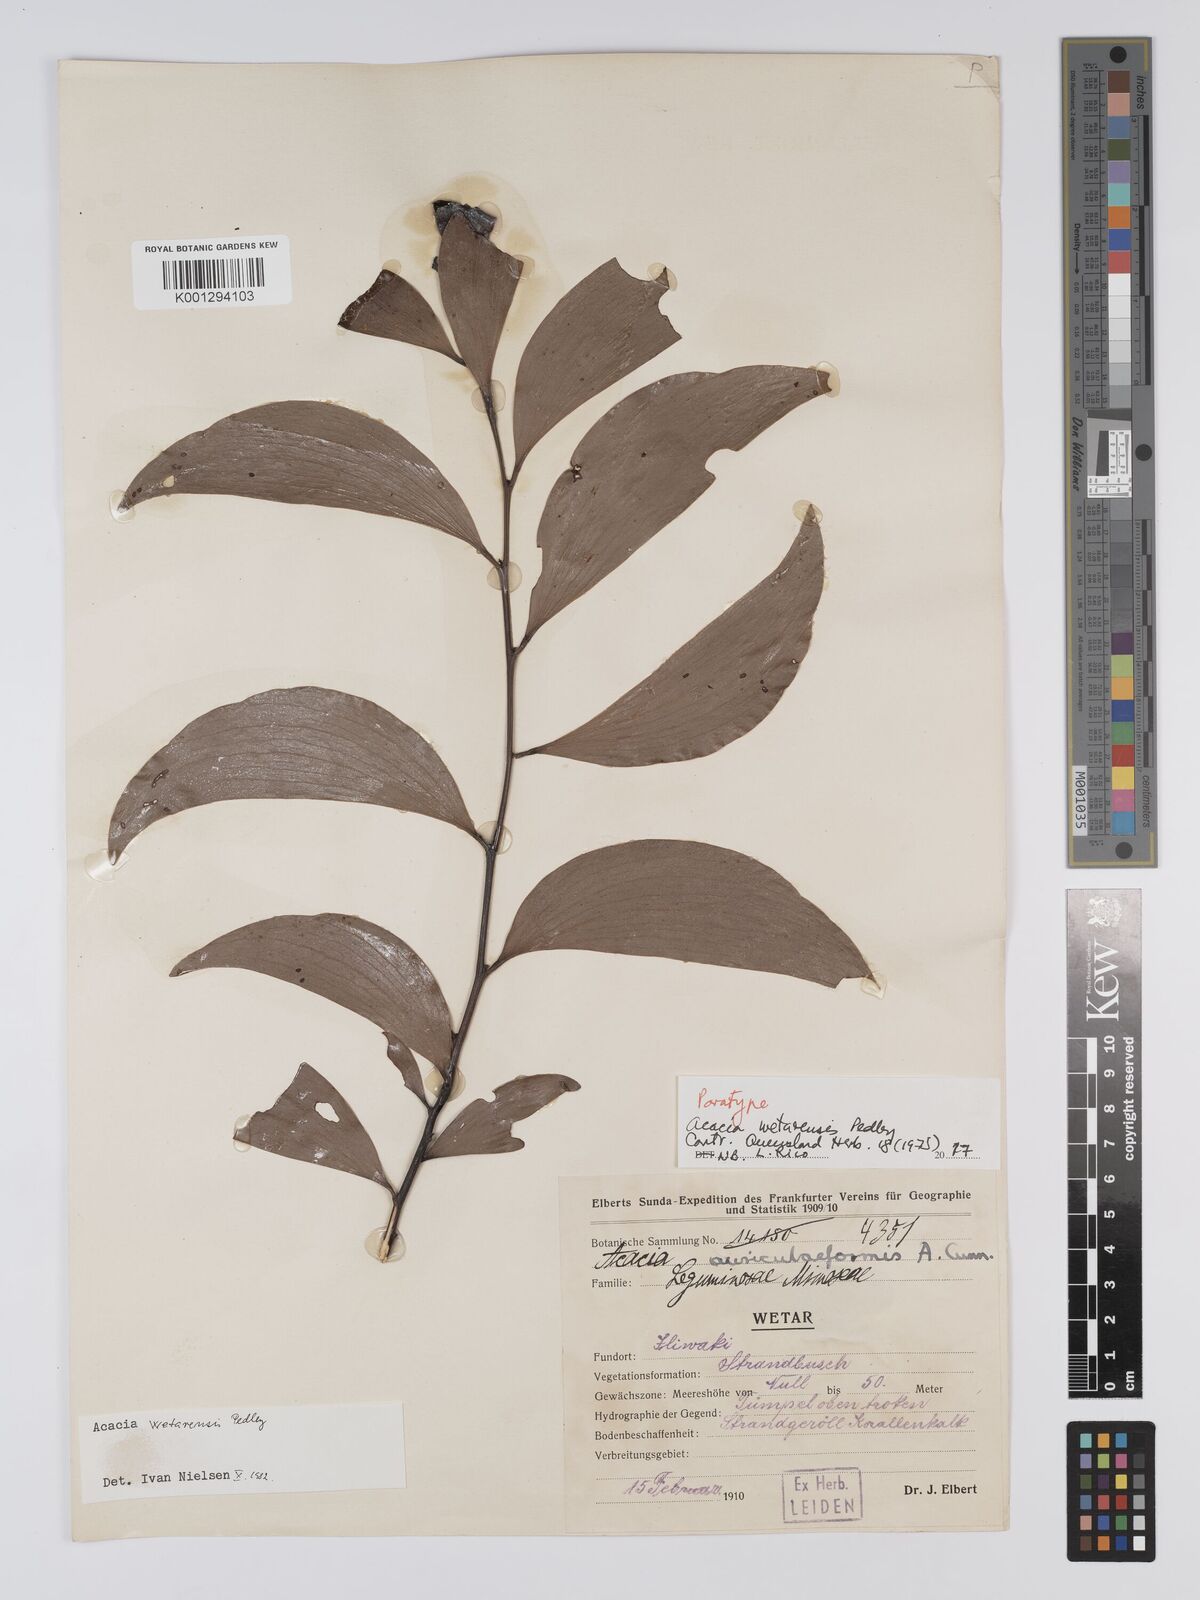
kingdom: Plantae
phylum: Tracheophyta
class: Magnoliopsida
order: Fabales
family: Fabaceae
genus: Acacia
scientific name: Acacia wetarensis
